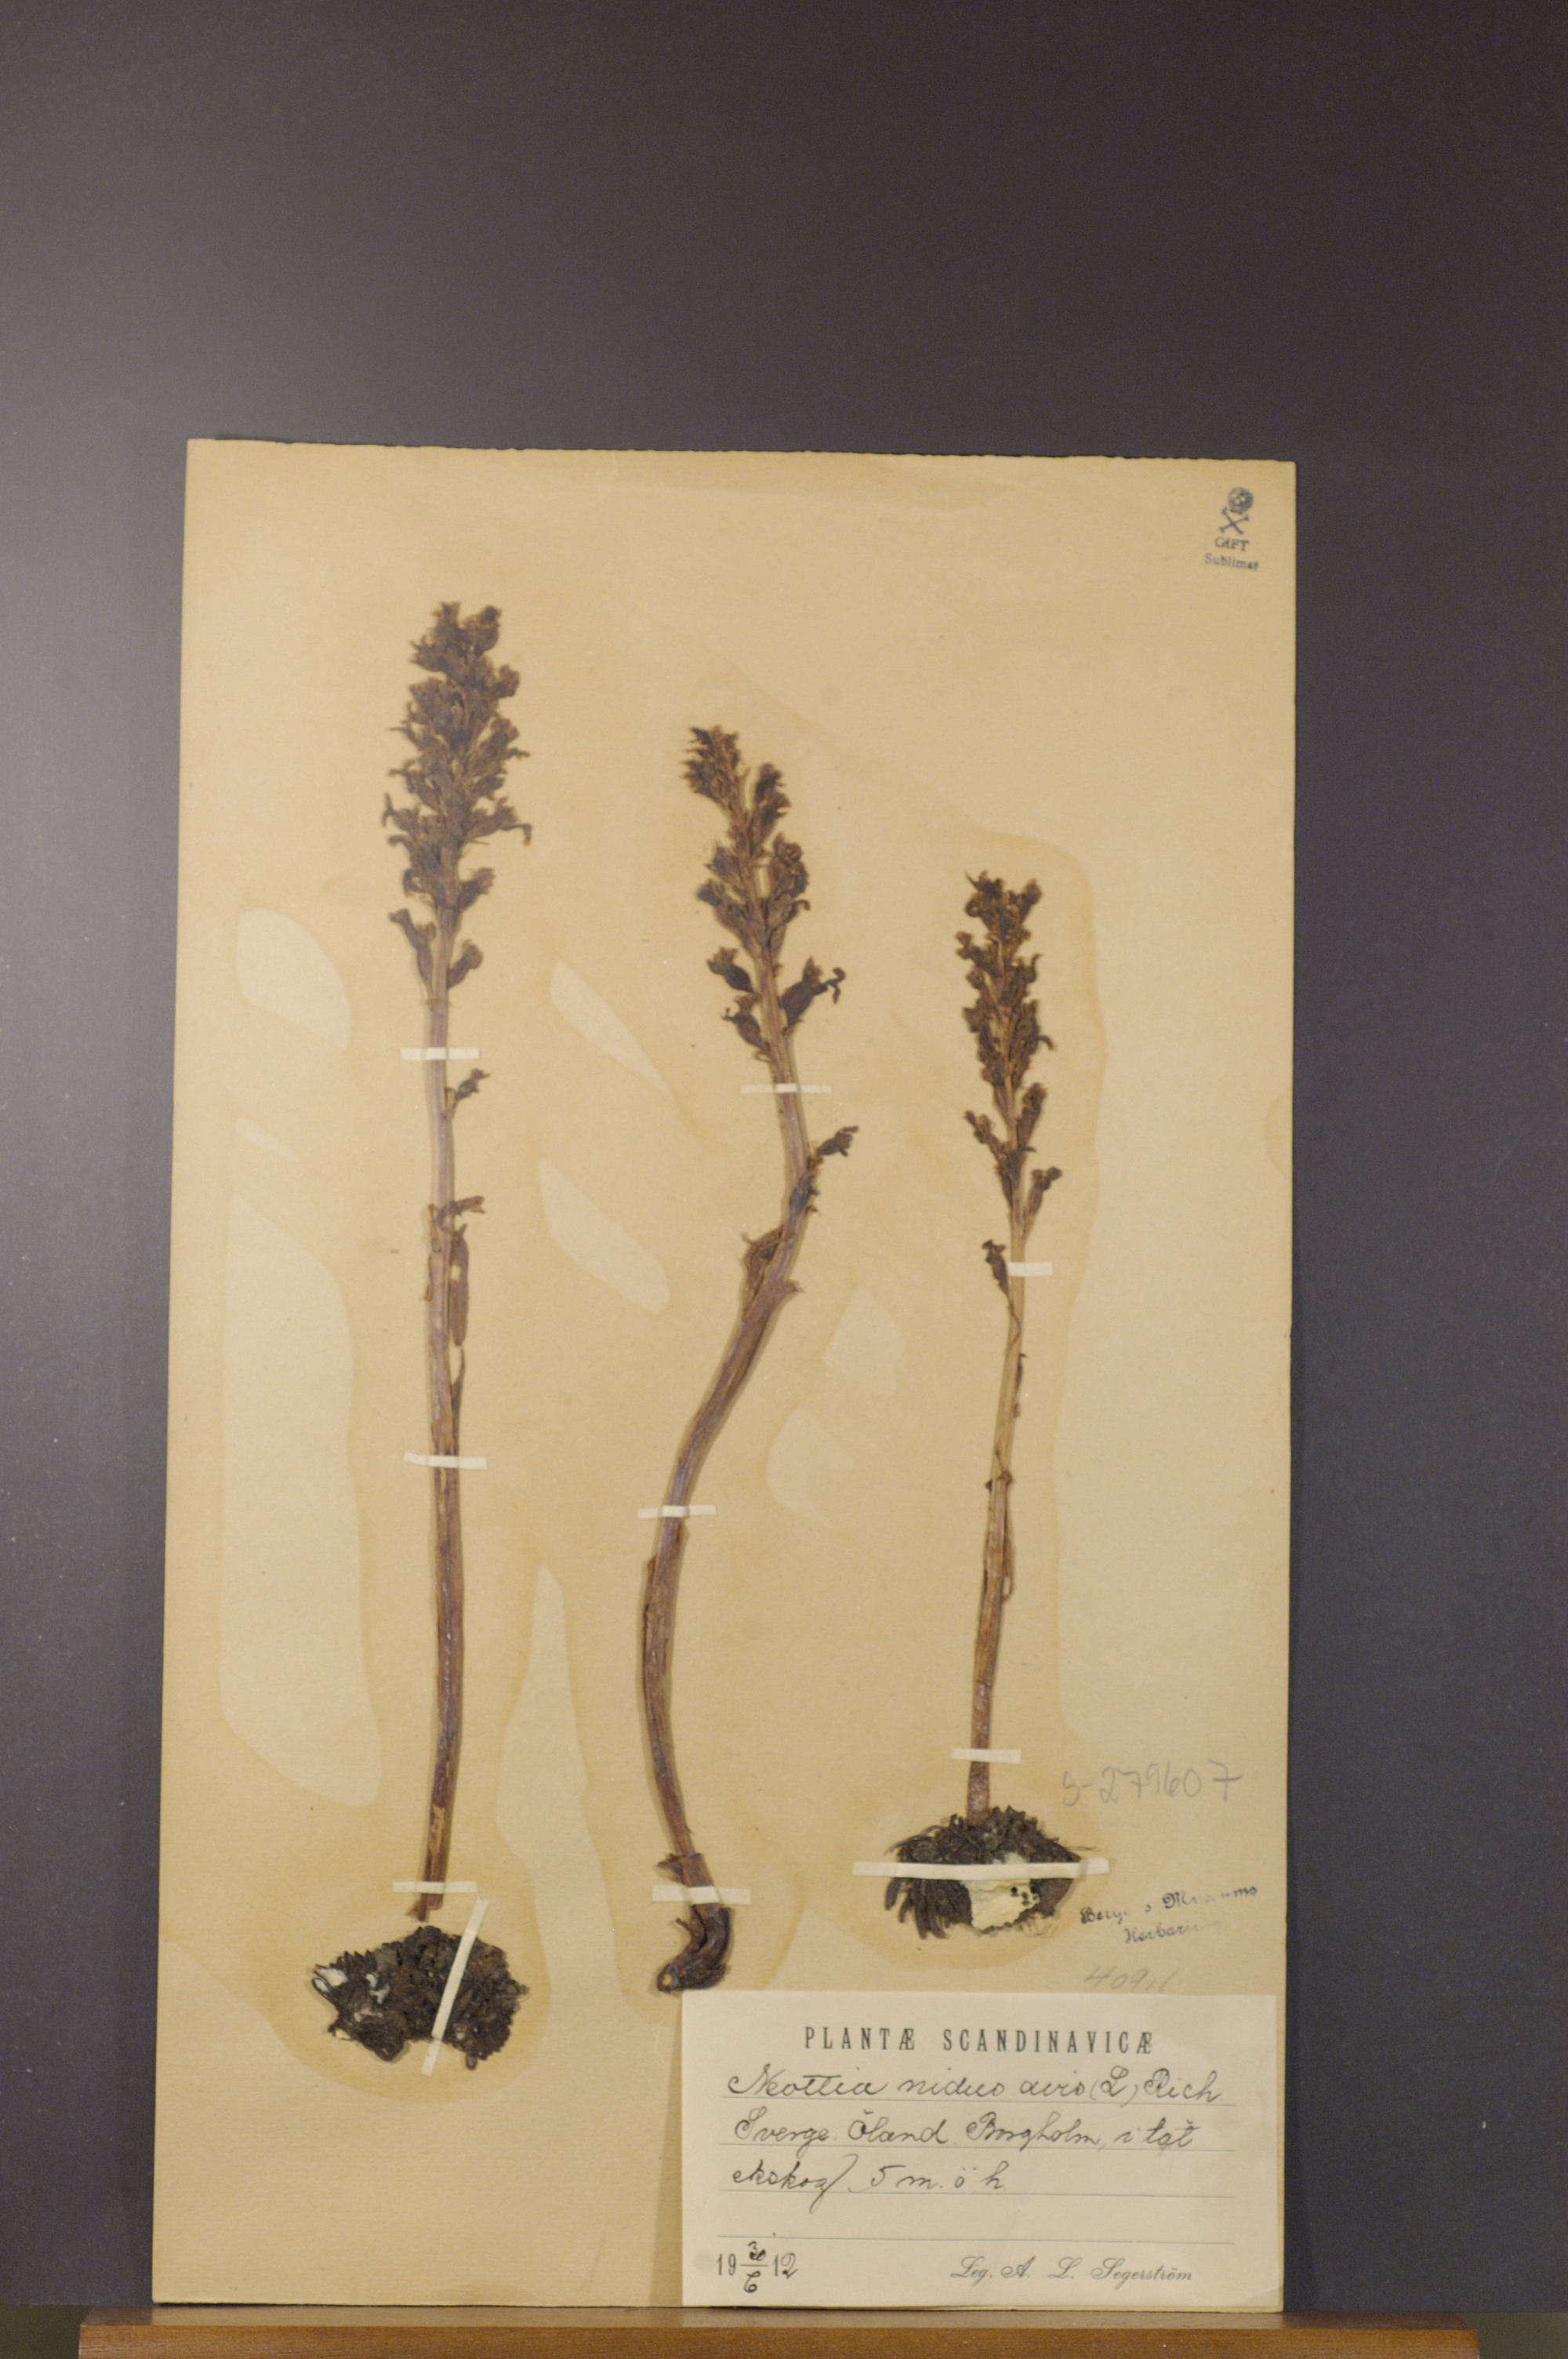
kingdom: Plantae
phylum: Tracheophyta
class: Liliopsida
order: Asparagales
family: Orchidaceae
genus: Neottia
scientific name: Neottia nidus-avis
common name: Bird's-nest orchid
